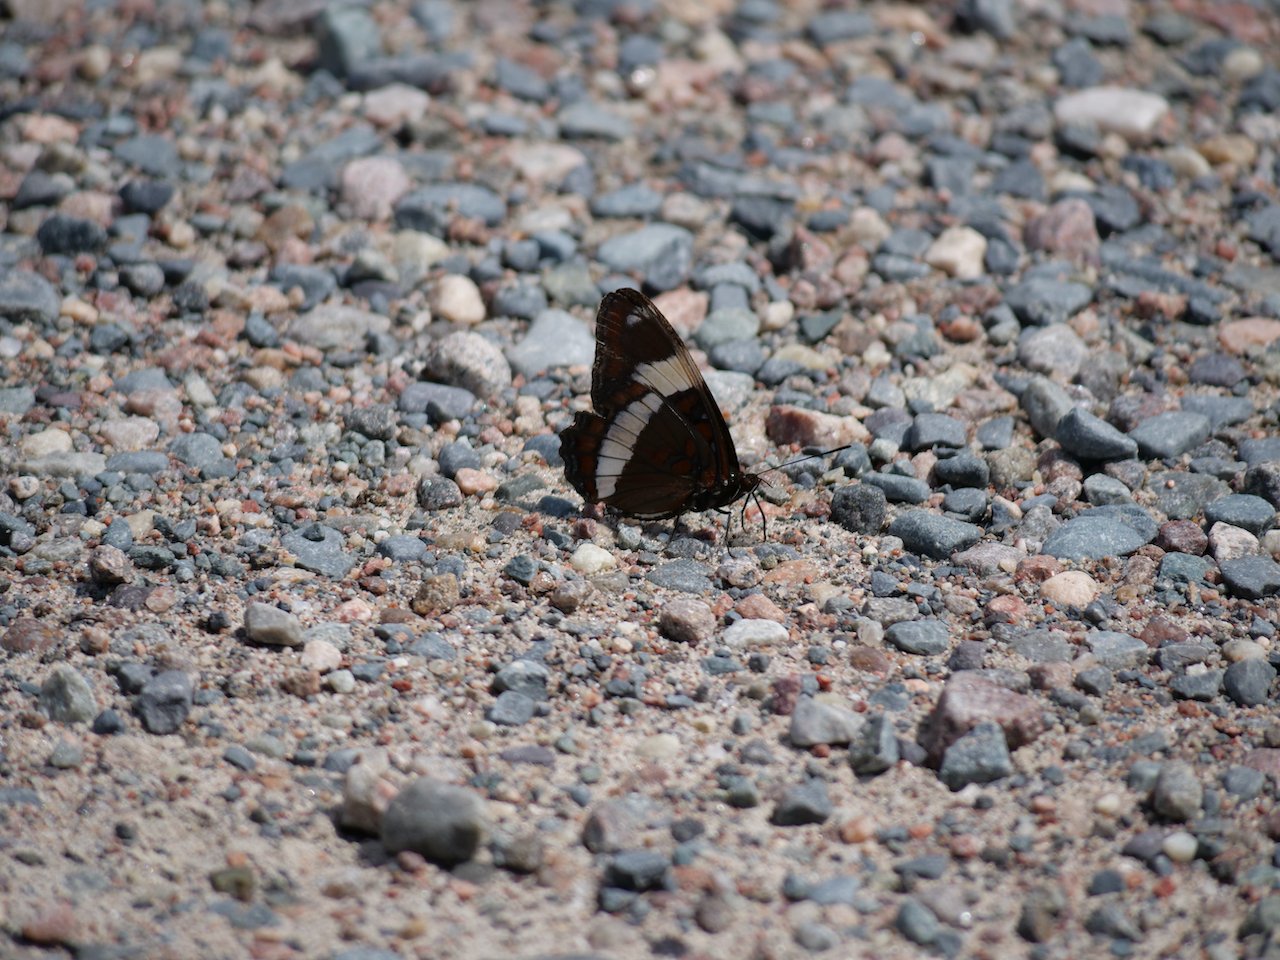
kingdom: Animalia
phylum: Arthropoda
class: Insecta
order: Lepidoptera
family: Nymphalidae
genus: Limenitis
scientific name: Limenitis arthemis
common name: Red-spotted Admiral
